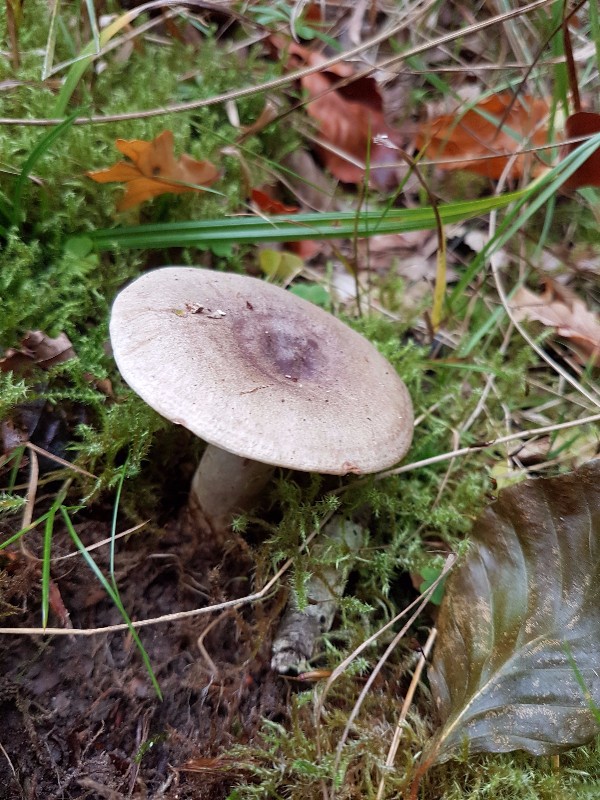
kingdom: Fungi
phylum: Basidiomycota
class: Agaricomycetes
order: Russulales
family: Russulaceae
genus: Lactifluus
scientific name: Lactifluus piperatus
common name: peber-mælkehat
